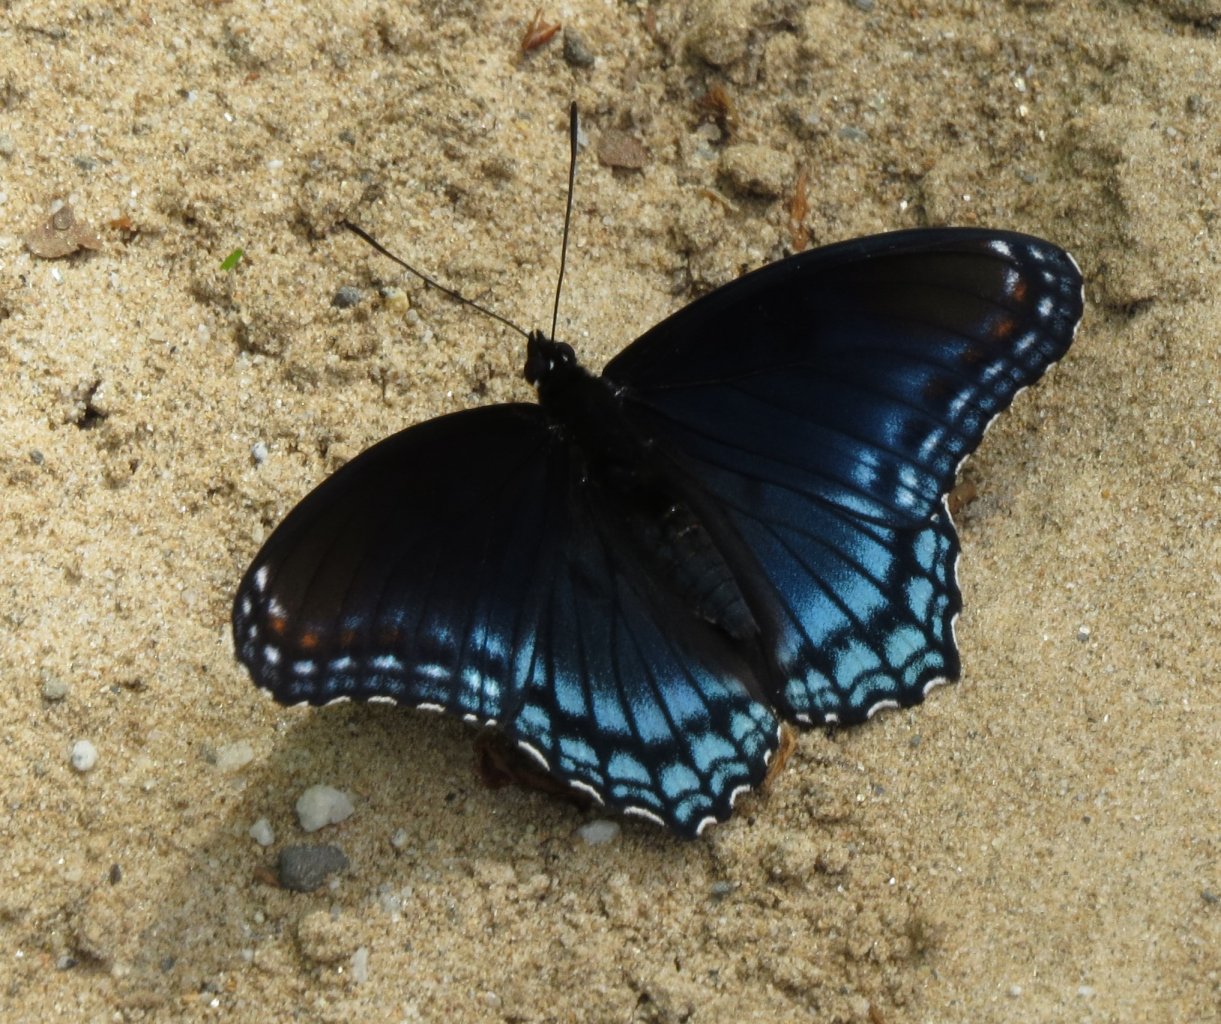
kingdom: Animalia
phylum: Arthropoda
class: Insecta
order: Lepidoptera
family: Nymphalidae
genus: Limenitis
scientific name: Limenitis astyanax
